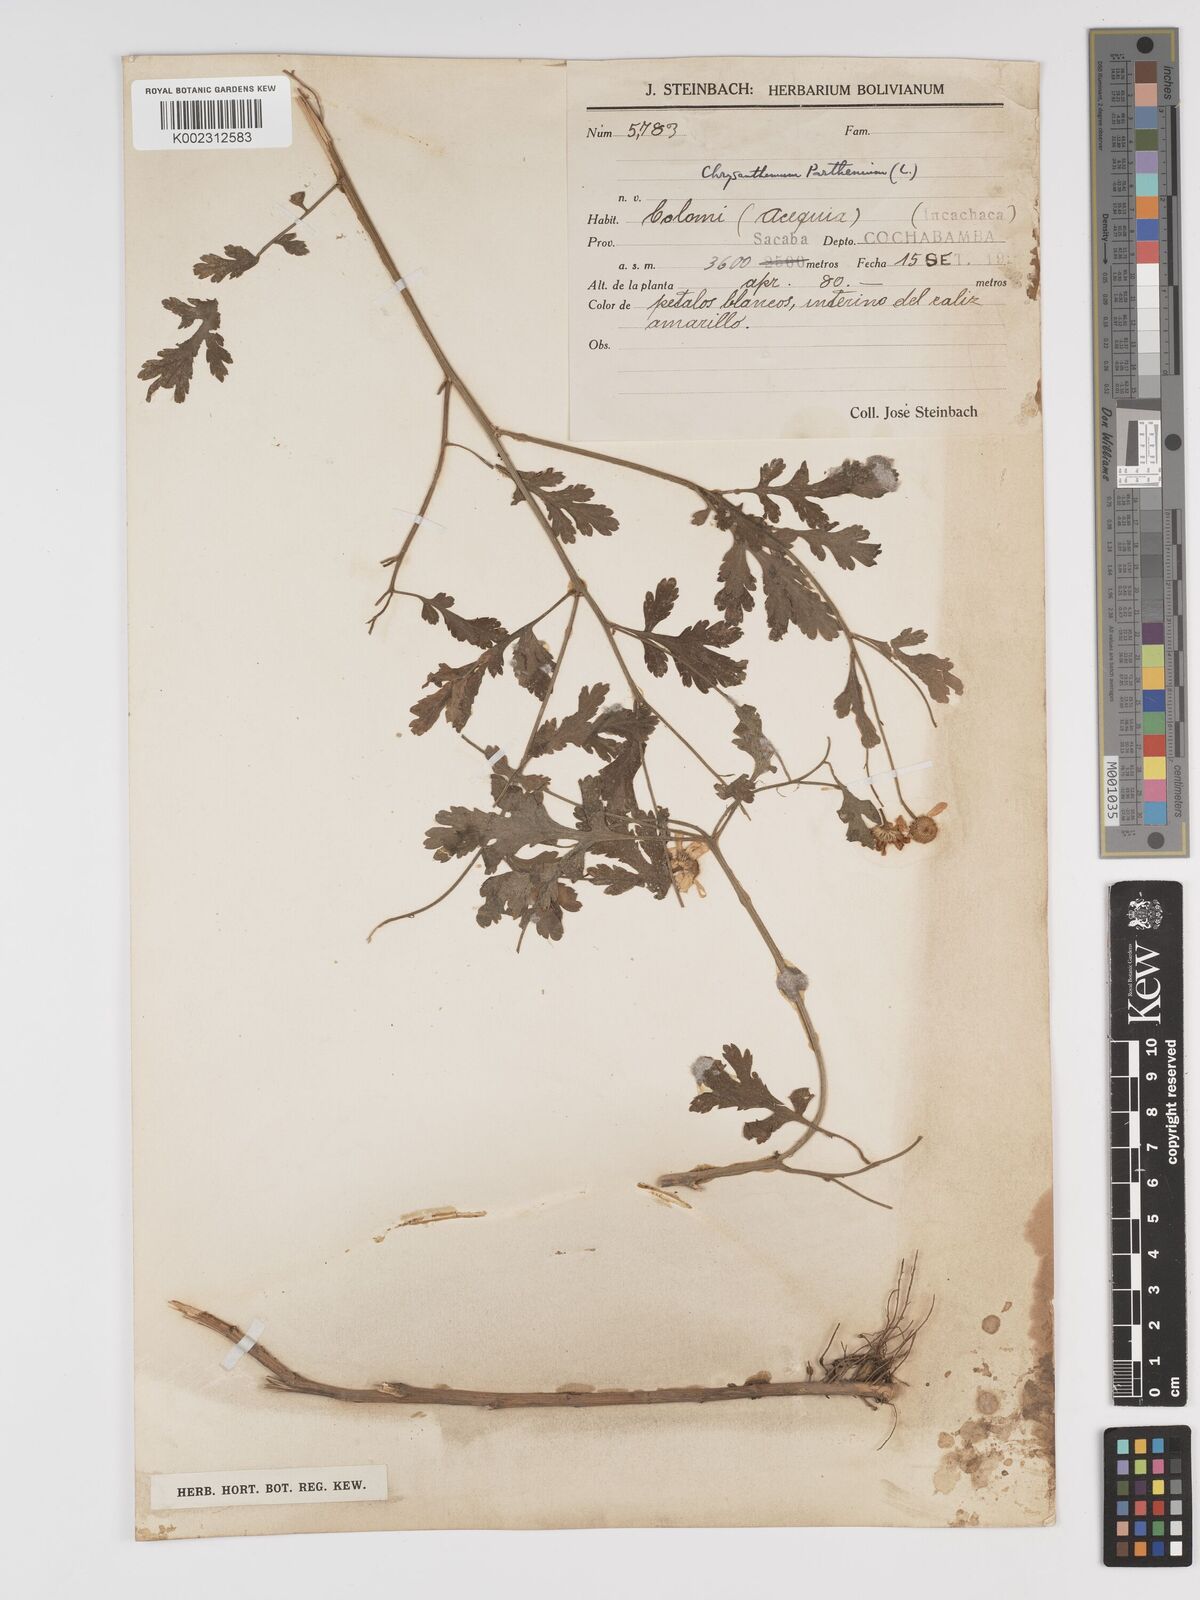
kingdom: Plantae
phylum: Tracheophyta
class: Magnoliopsida
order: Asterales
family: Asteraceae
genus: Tanacetum
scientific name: Tanacetum parthenium
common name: Feverfew
